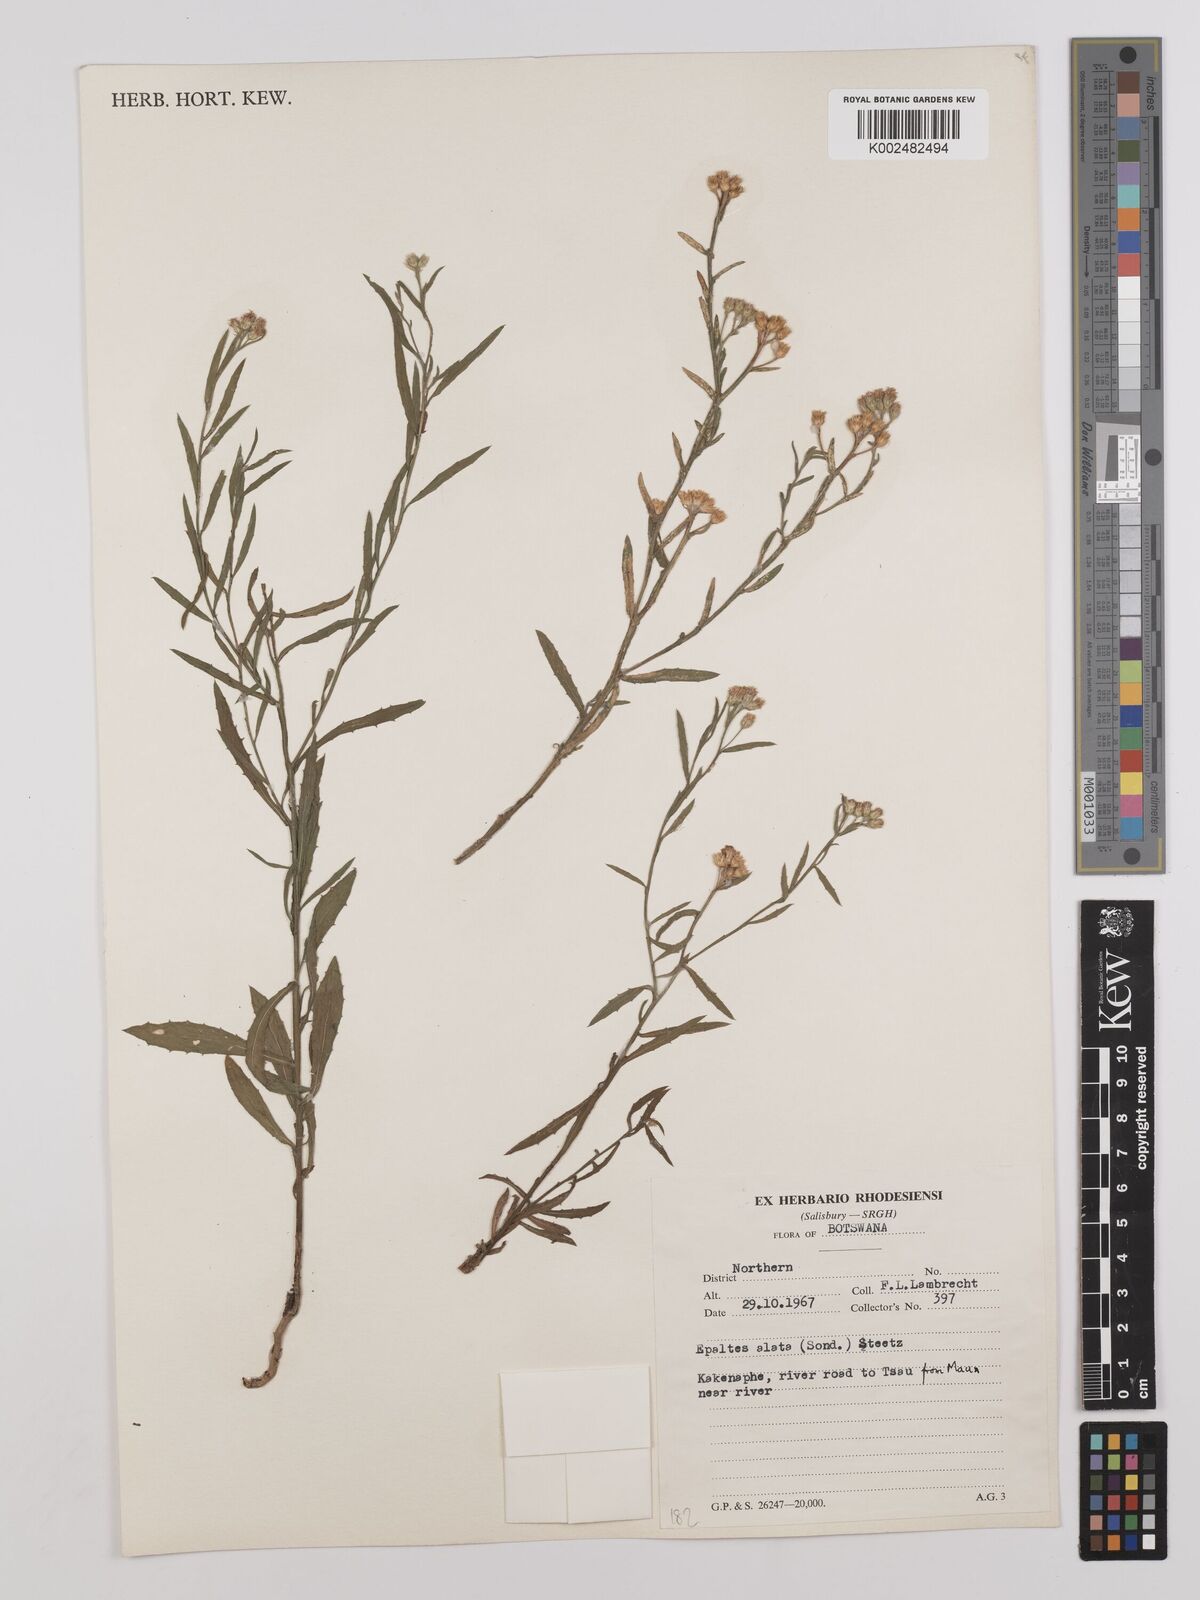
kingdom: Plantae
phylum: Tracheophyta
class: Magnoliopsida
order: Asterales
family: Asteraceae
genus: Litogyne
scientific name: Litogyne gariepina
